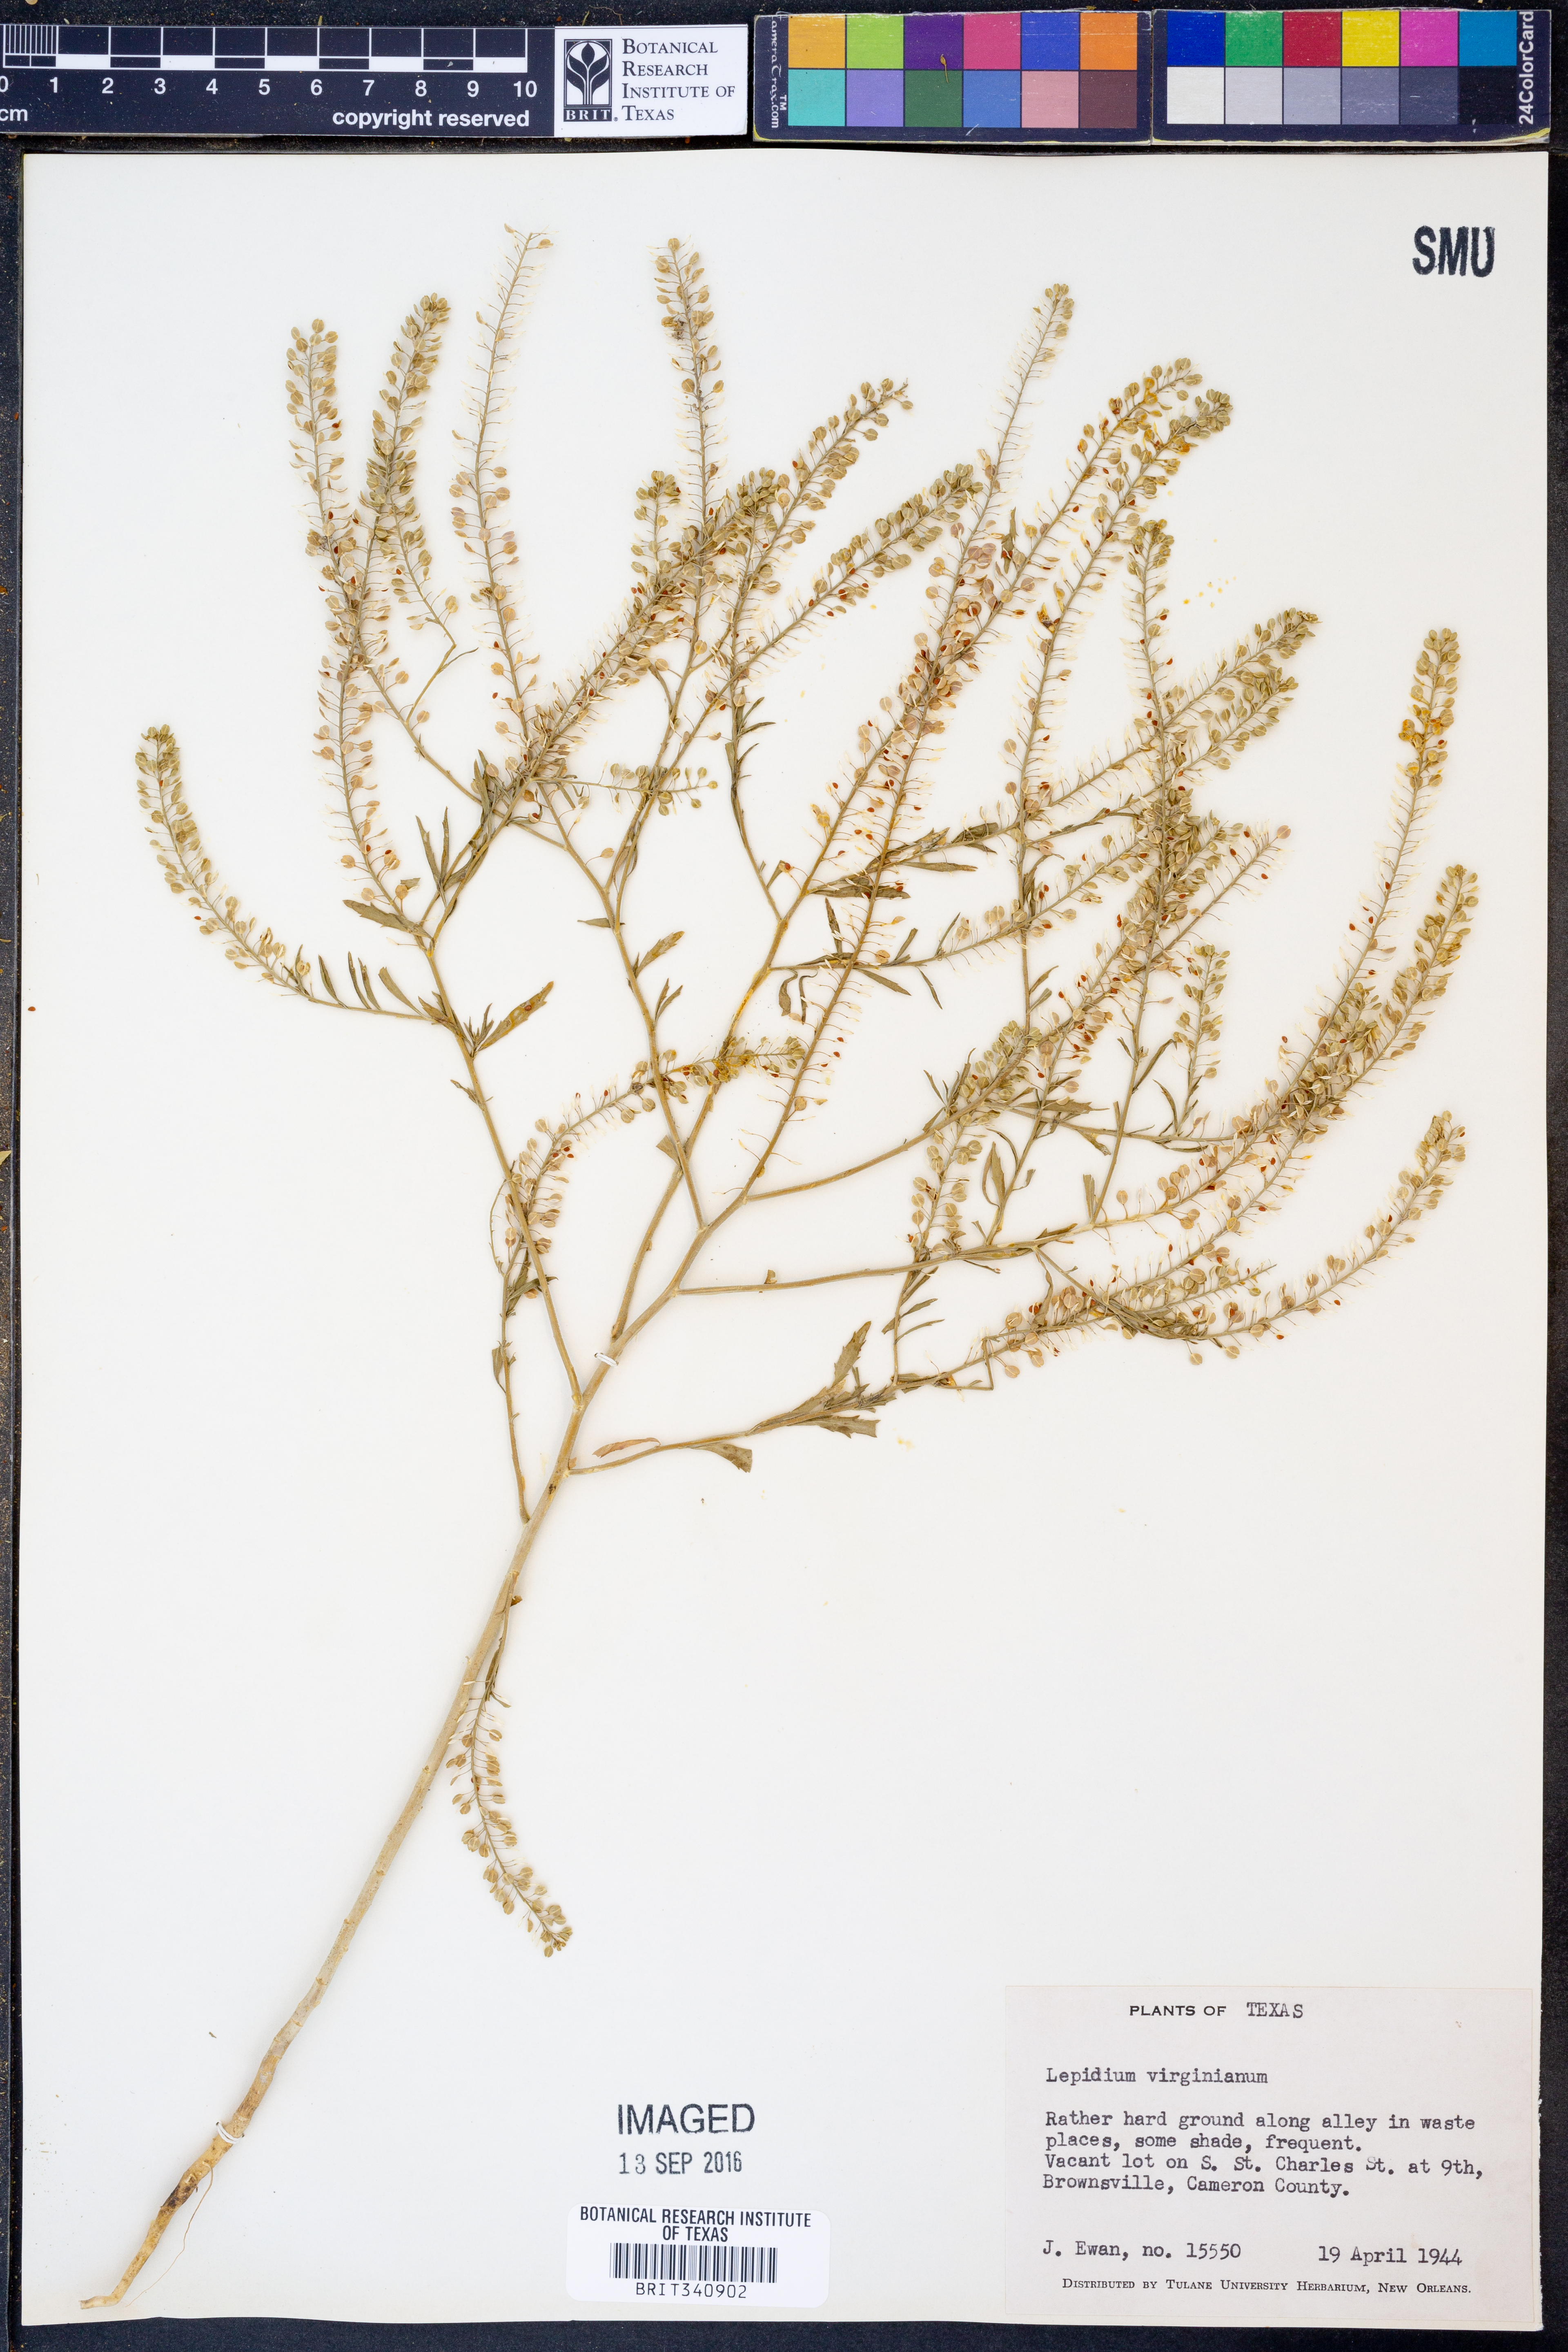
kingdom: Plantae
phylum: Tracheophyta
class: Magnoliopsida
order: Brassicales
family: Brassicaceae
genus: Lepidium
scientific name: Lepidium virginicum
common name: Least pepperwort
